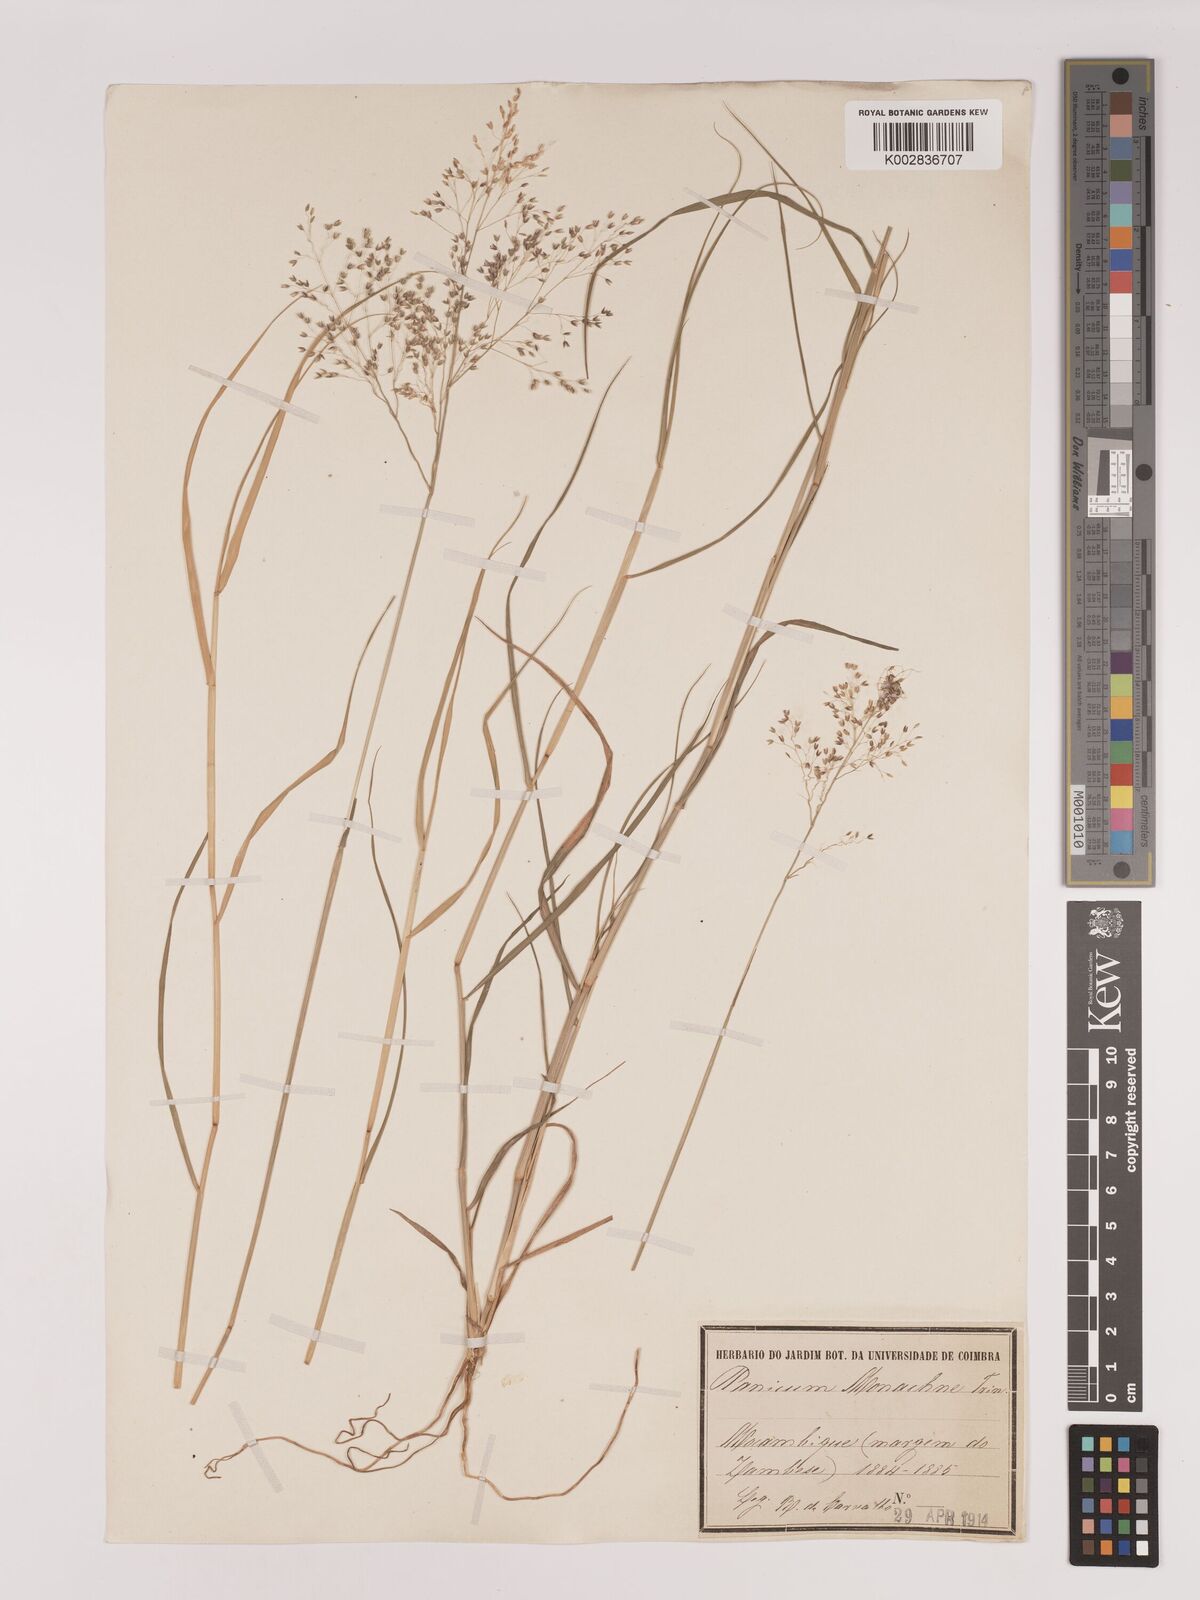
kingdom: Plantae
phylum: Tracheophyta
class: Liliopsida
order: Poales
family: Poaceae
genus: Tricholaena
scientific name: Tricholaena monachne
